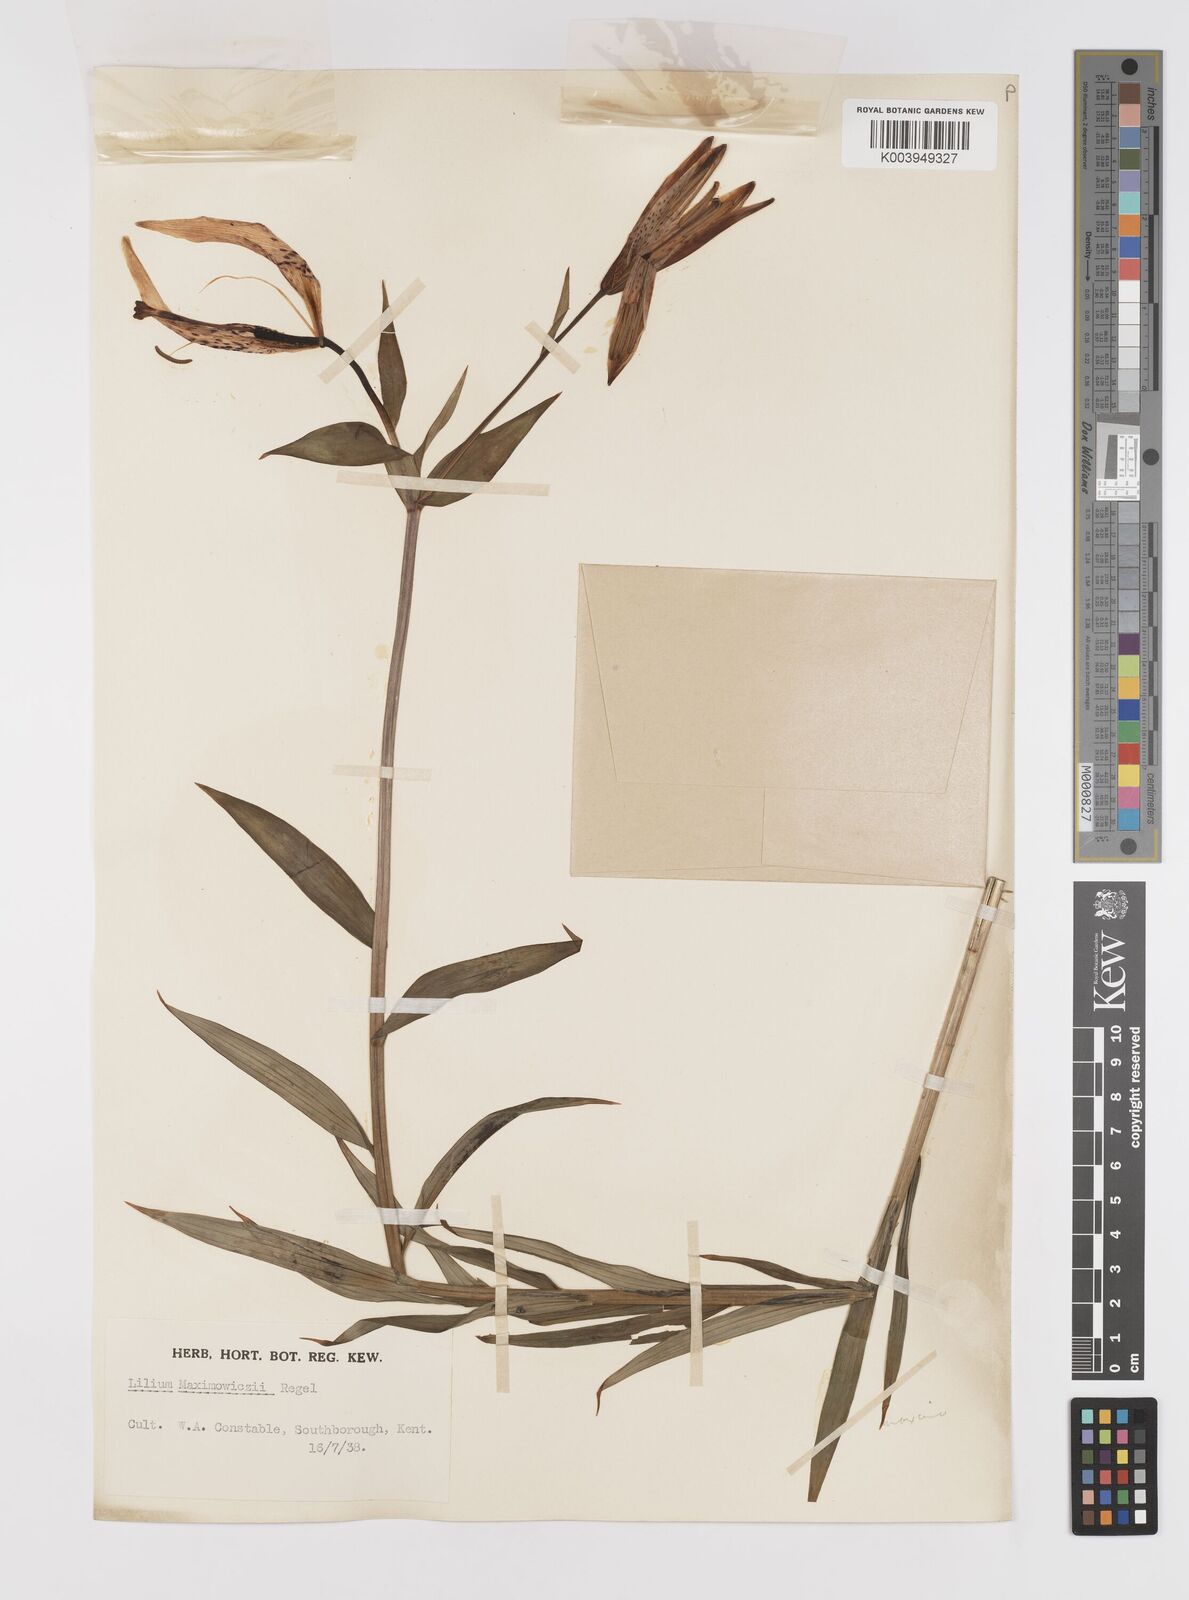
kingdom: Plantae
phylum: Tracheophyta
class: Liliopsida
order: Liliales
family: Liliaceae
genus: Lilium
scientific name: Lilium leichtlinii
